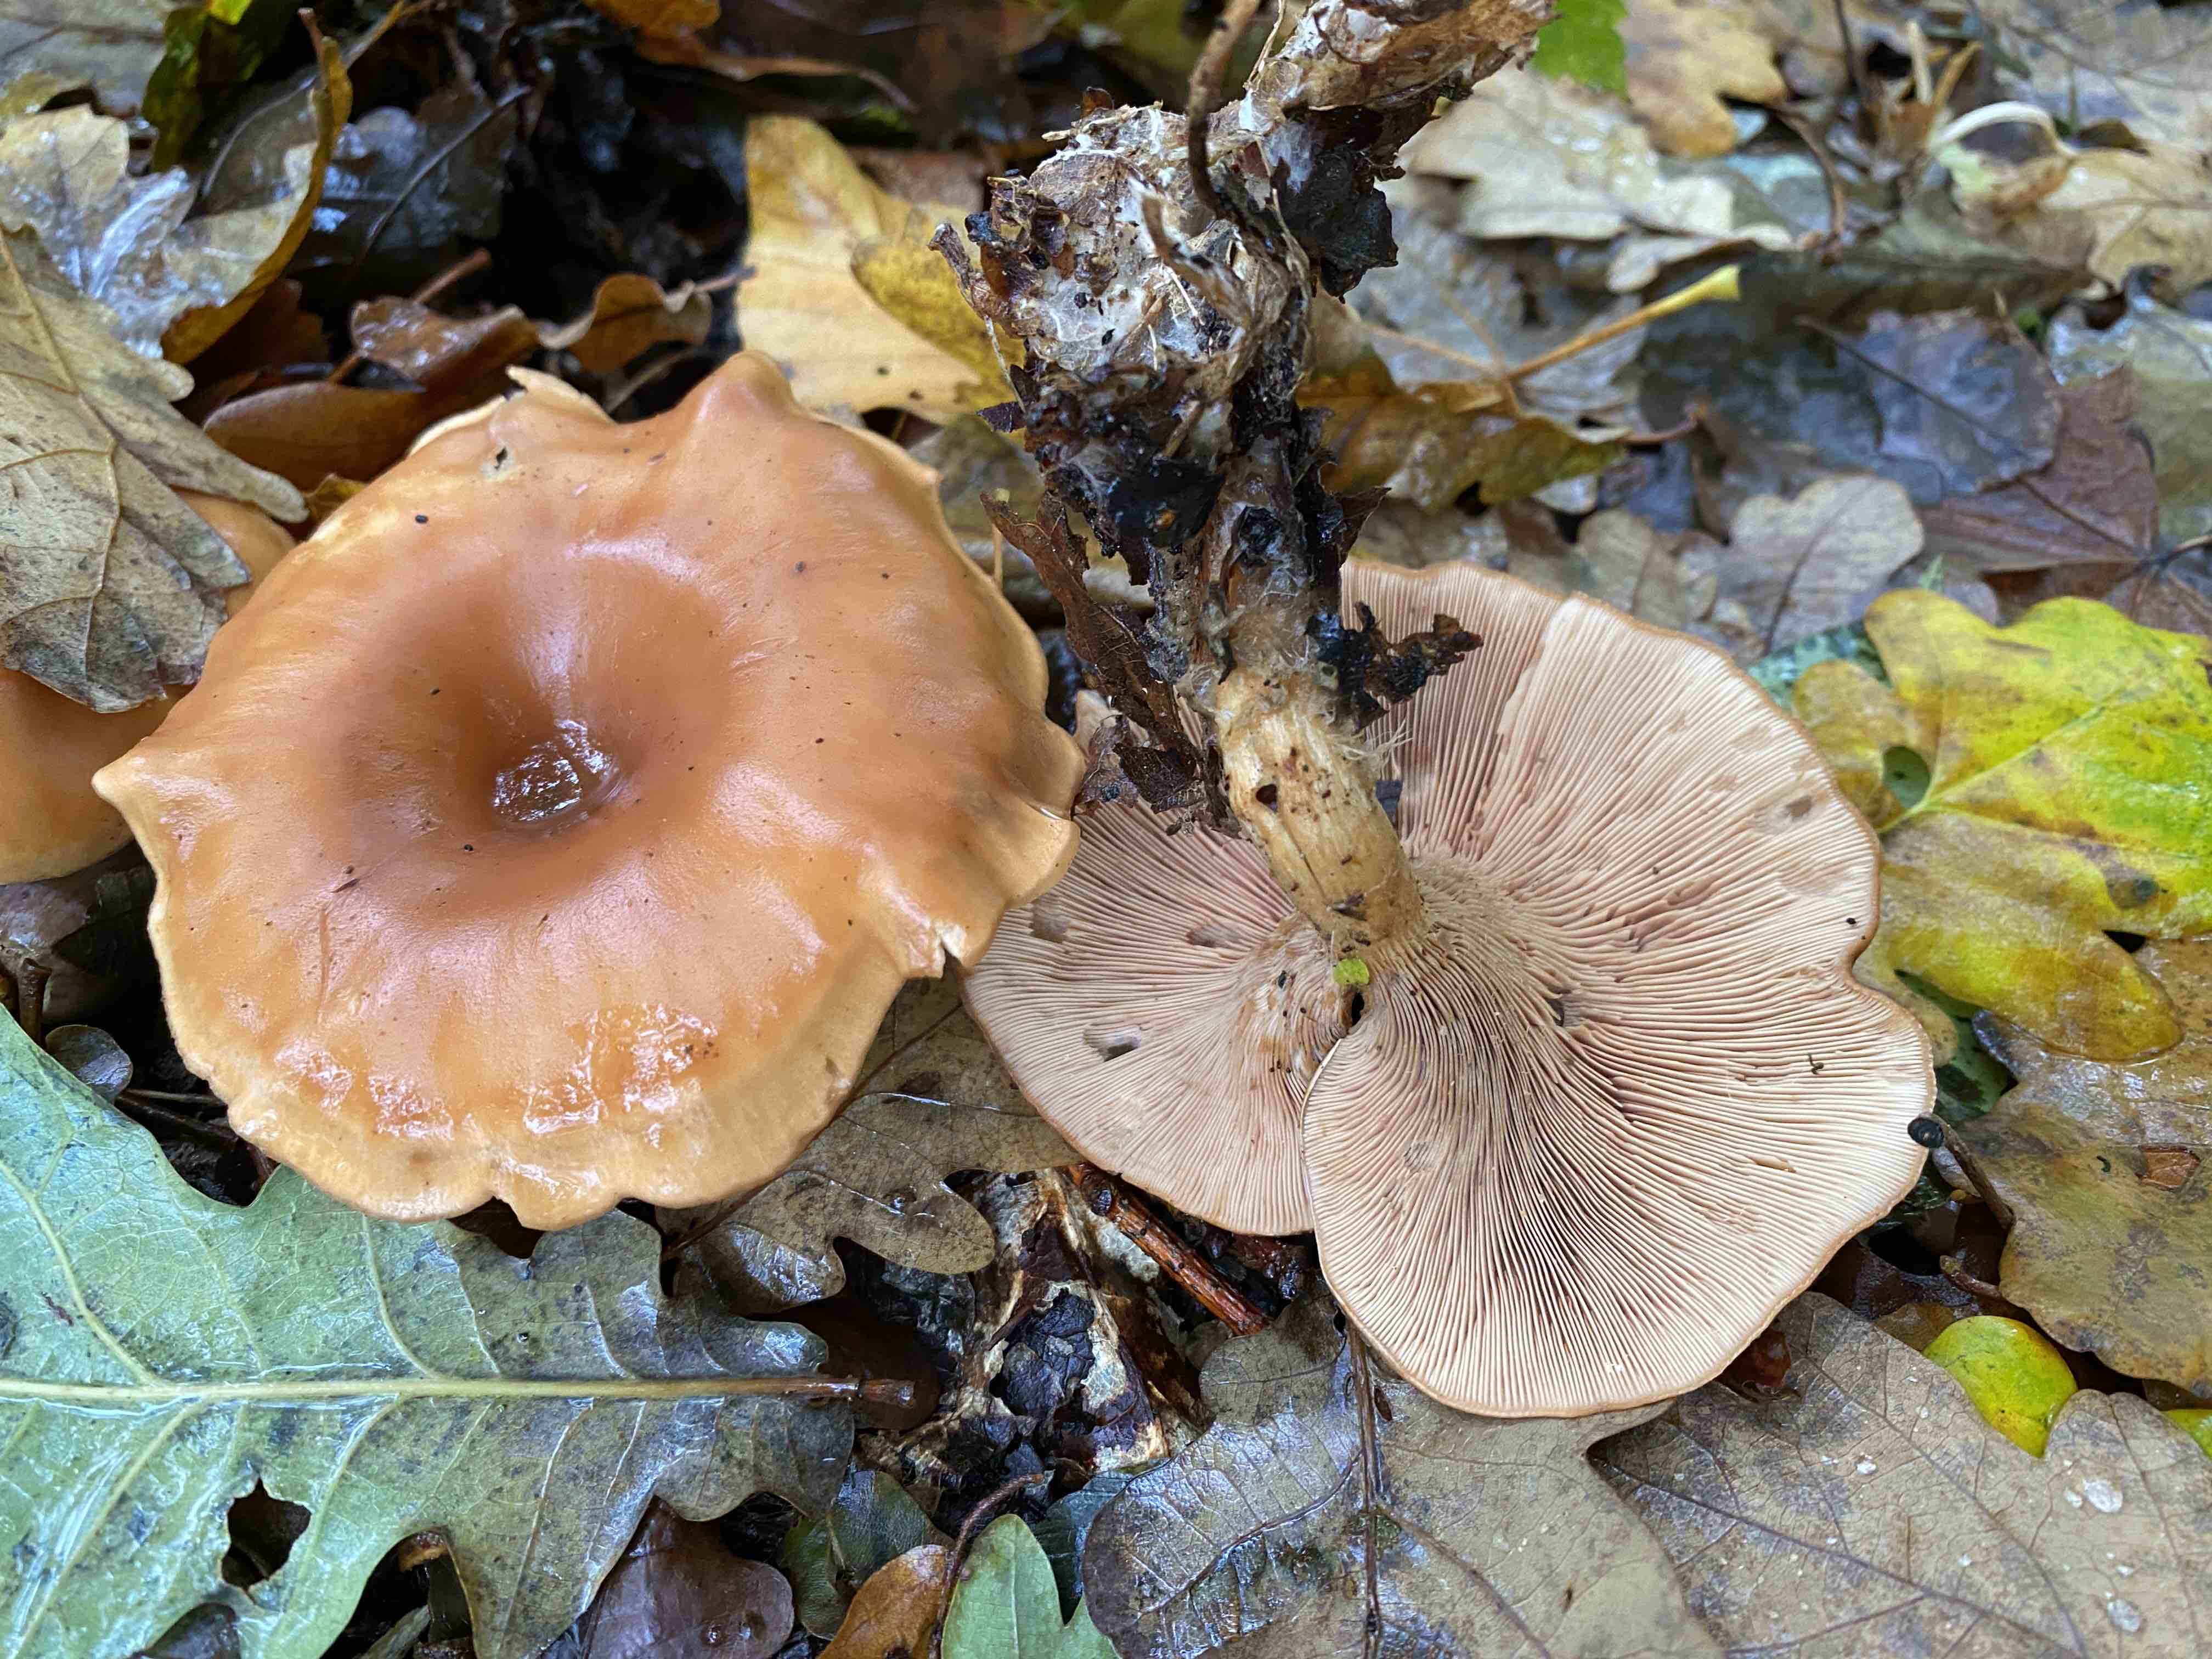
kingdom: Fungi
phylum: Basidiomycota
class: Agaricomycetes
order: Agaricales
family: Tricholomataceae
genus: Paralepista
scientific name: Paralepista flaccida
